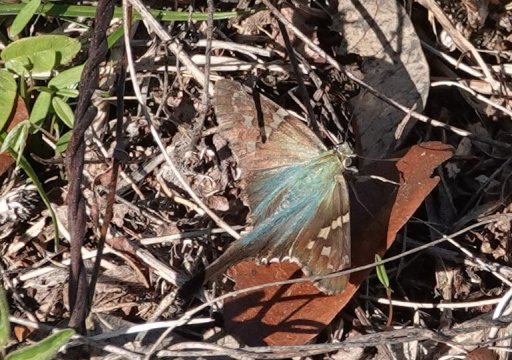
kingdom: Animalia
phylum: Arthropoda
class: Insecta
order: Lepidoptera
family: Hesperiidae
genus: Urbanus
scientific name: Urbanus proteus
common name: Long-tailed Skipper
